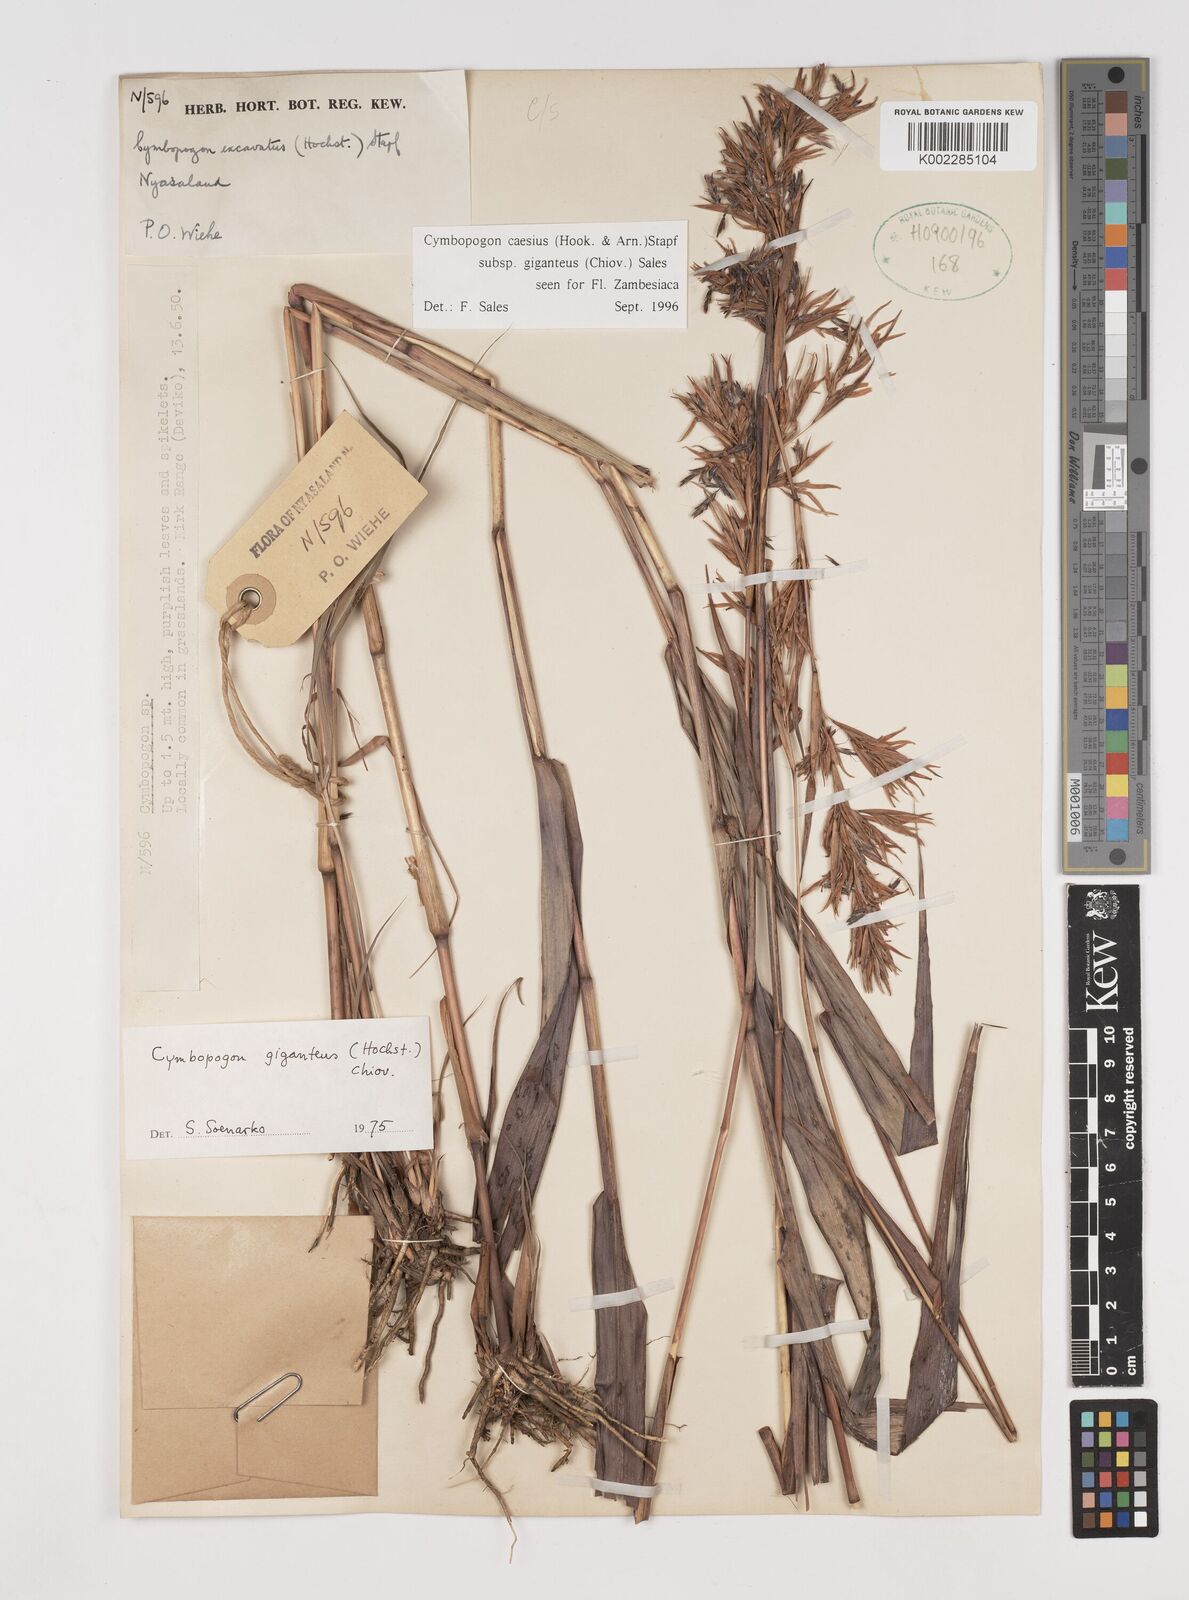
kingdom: Plantae
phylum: Tracheophyta
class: Liliopsida
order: Poales
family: Poaceae
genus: Cymbopogon
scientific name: Cymbopogon giganteus
